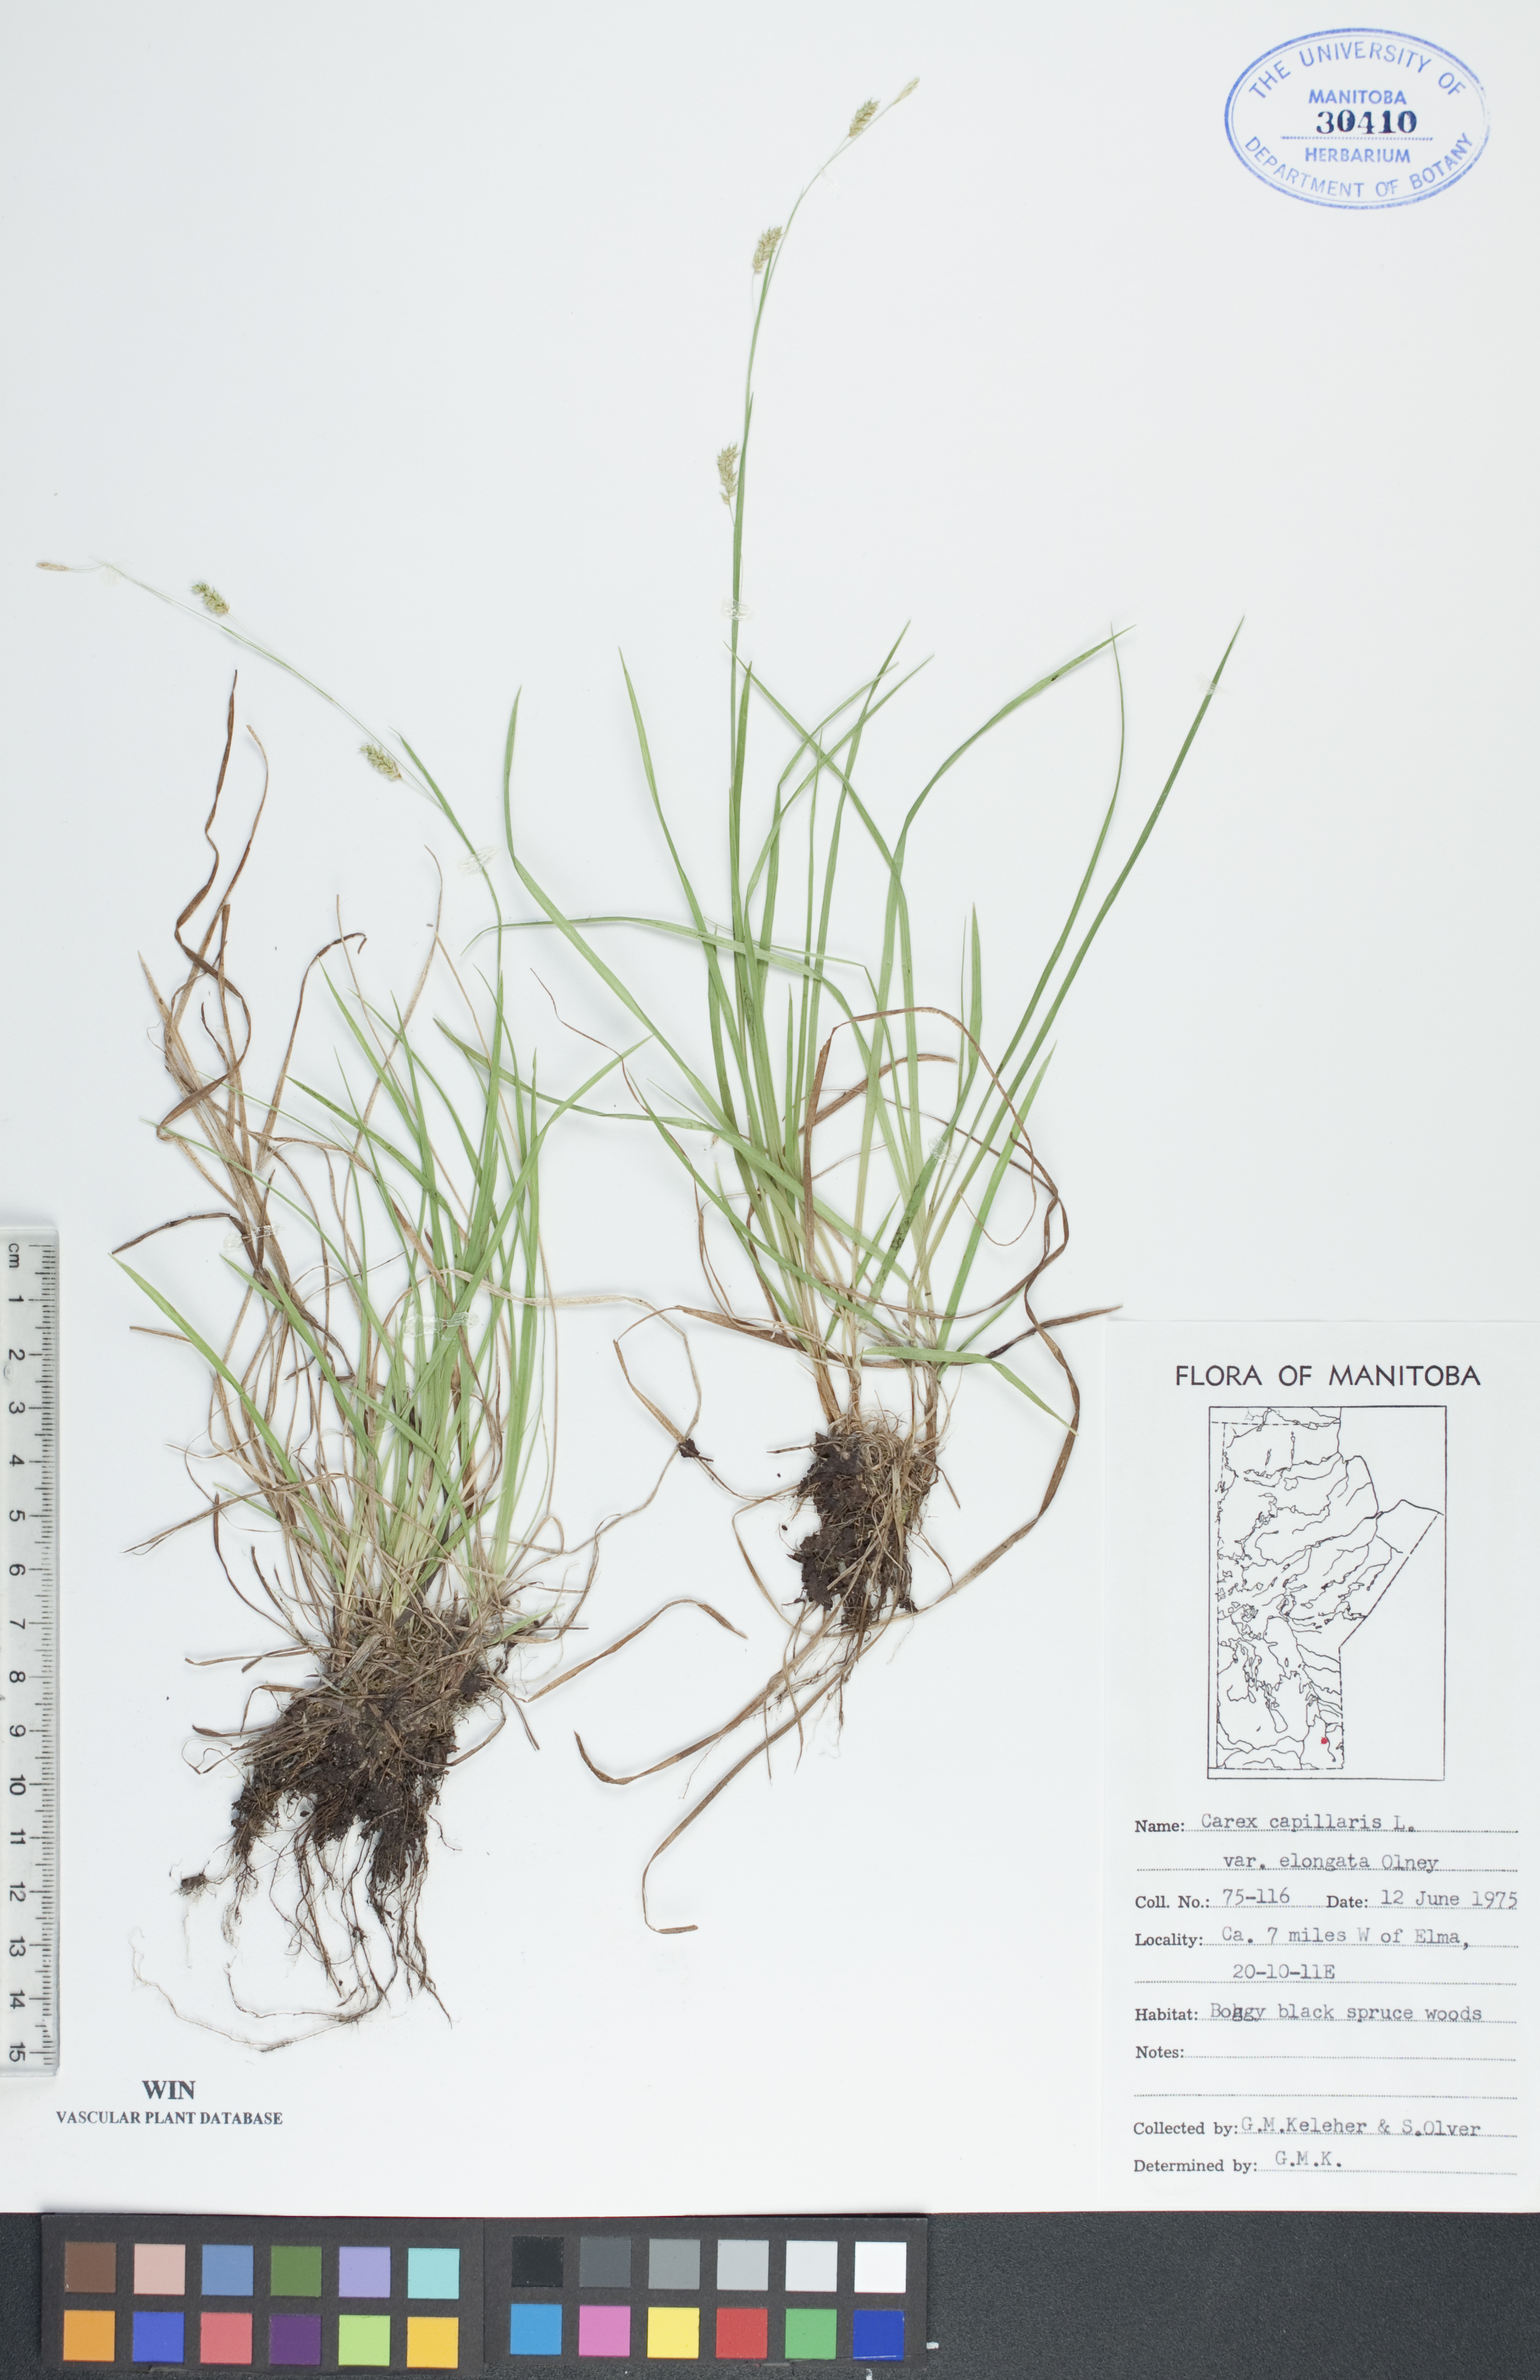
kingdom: Plantae
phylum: Tracheophyta
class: Liliopsida
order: Poales
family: Cyperaceae
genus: Carex
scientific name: Carex capillaris
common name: Hair sedge
